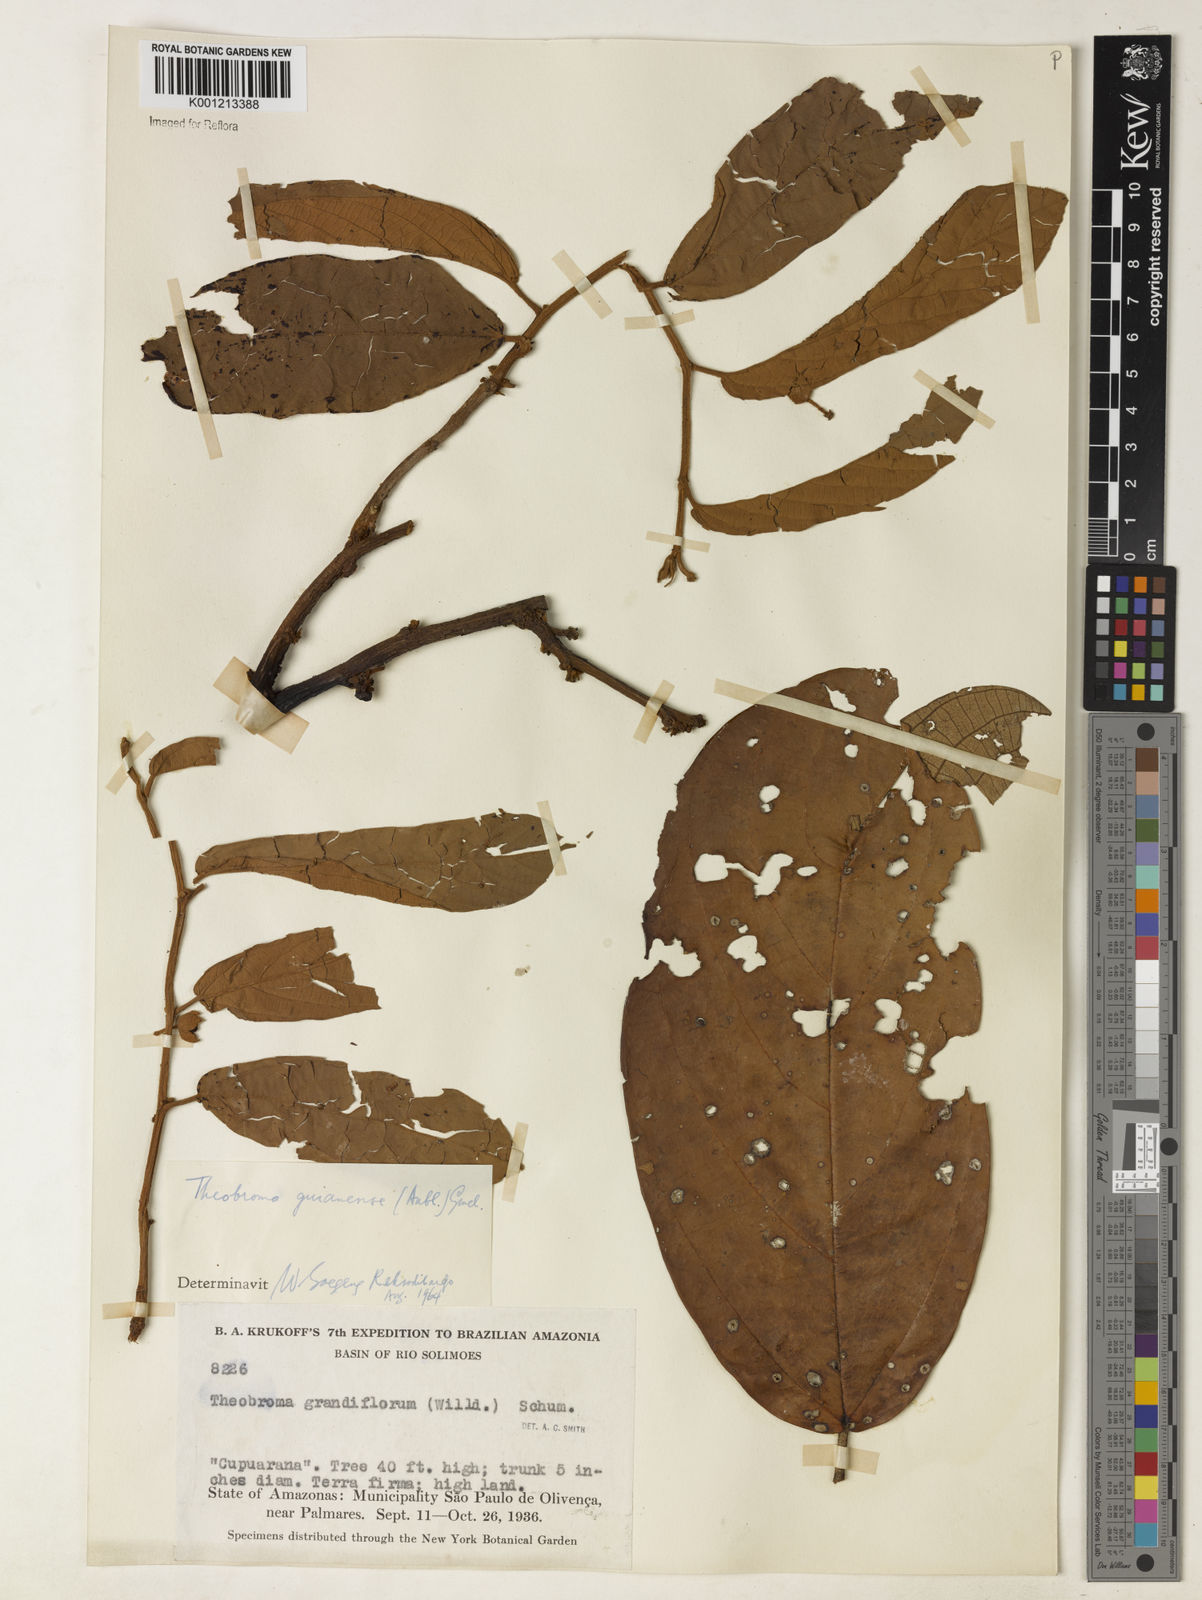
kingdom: Plantae
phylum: Tracheophyta
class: Magnoliopsida
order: Malvales
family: Malvaceae
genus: Theobroma
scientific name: Theobroma subincanum
